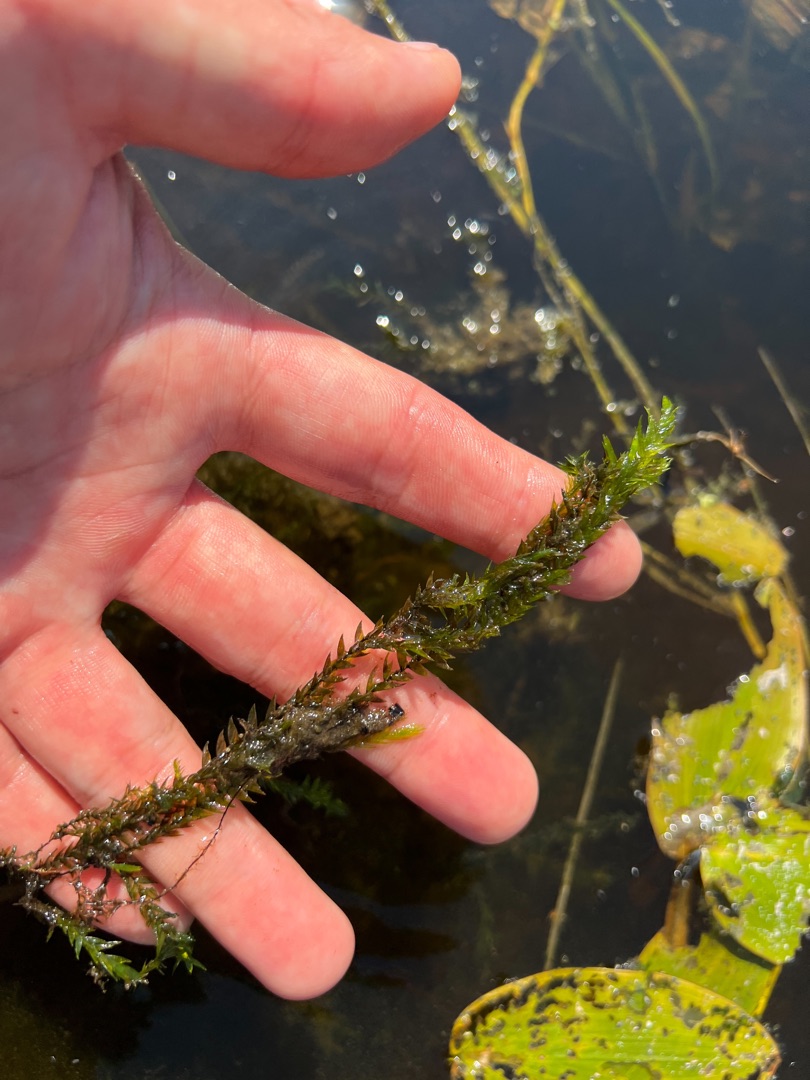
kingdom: Plantae
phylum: Bryophyta
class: Bryopsida
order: Hypnales
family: Fontinalaceae
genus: Fontinalis
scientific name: Fontinalis antipyretica
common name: Stor kildemos
